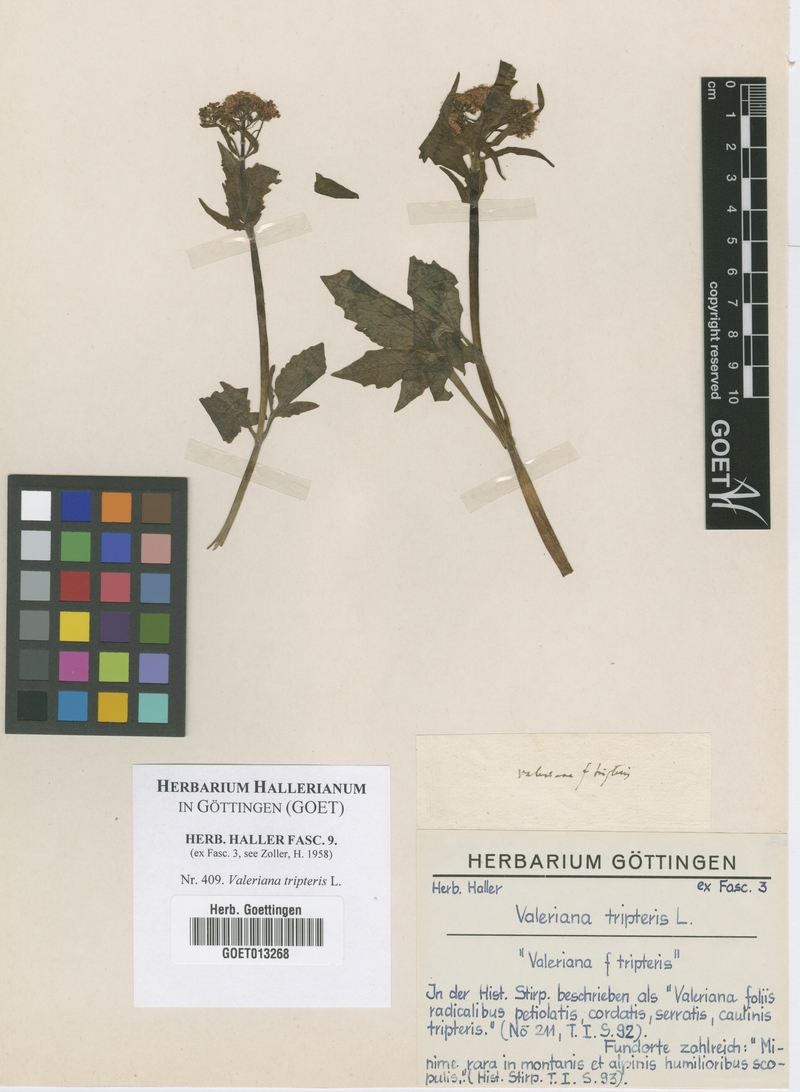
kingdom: Plantae
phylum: Tracheophyta
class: Magnoliopsida
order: Dipsacales
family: Caprifoliaceae
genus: Valeriana
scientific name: Valeriana tripteris
